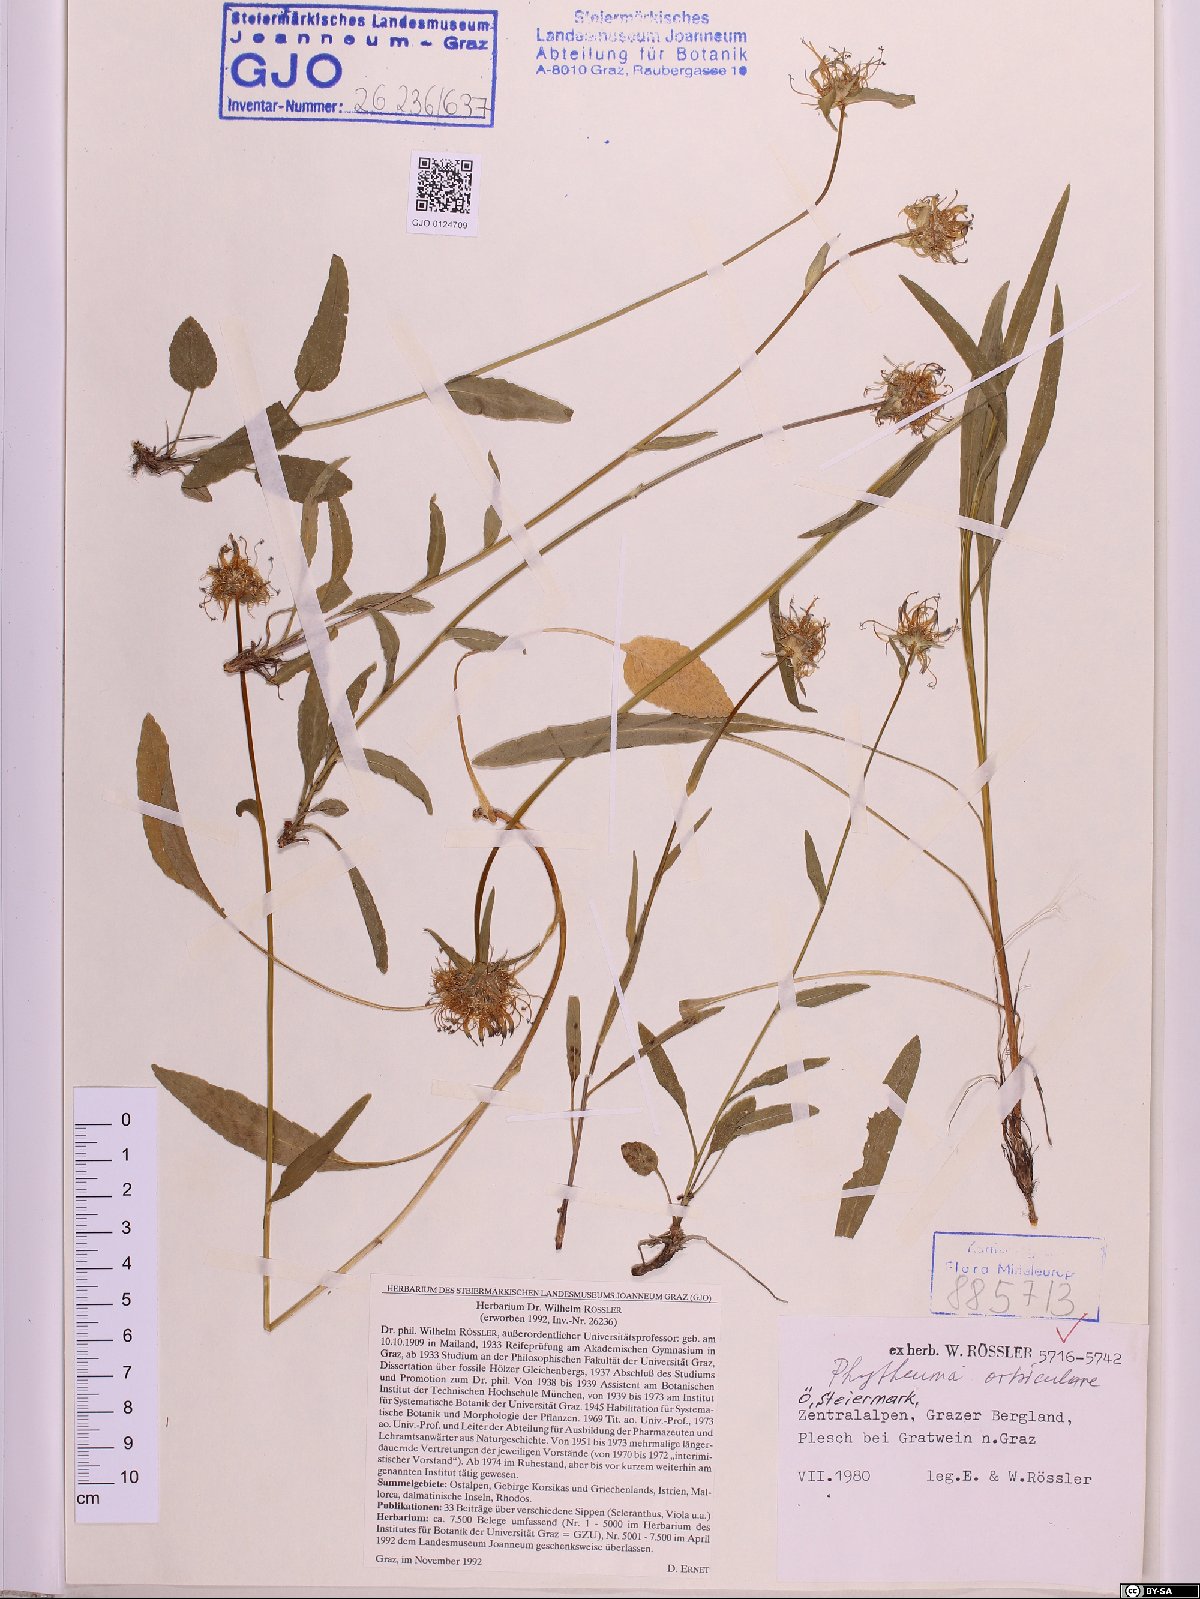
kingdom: Plantae
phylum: Tracheophyta
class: Magnoliopsida
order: Asterales
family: Campanulaceae
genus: Phyteuma
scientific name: Phyteuma orbiculare
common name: Round-headed rampion
